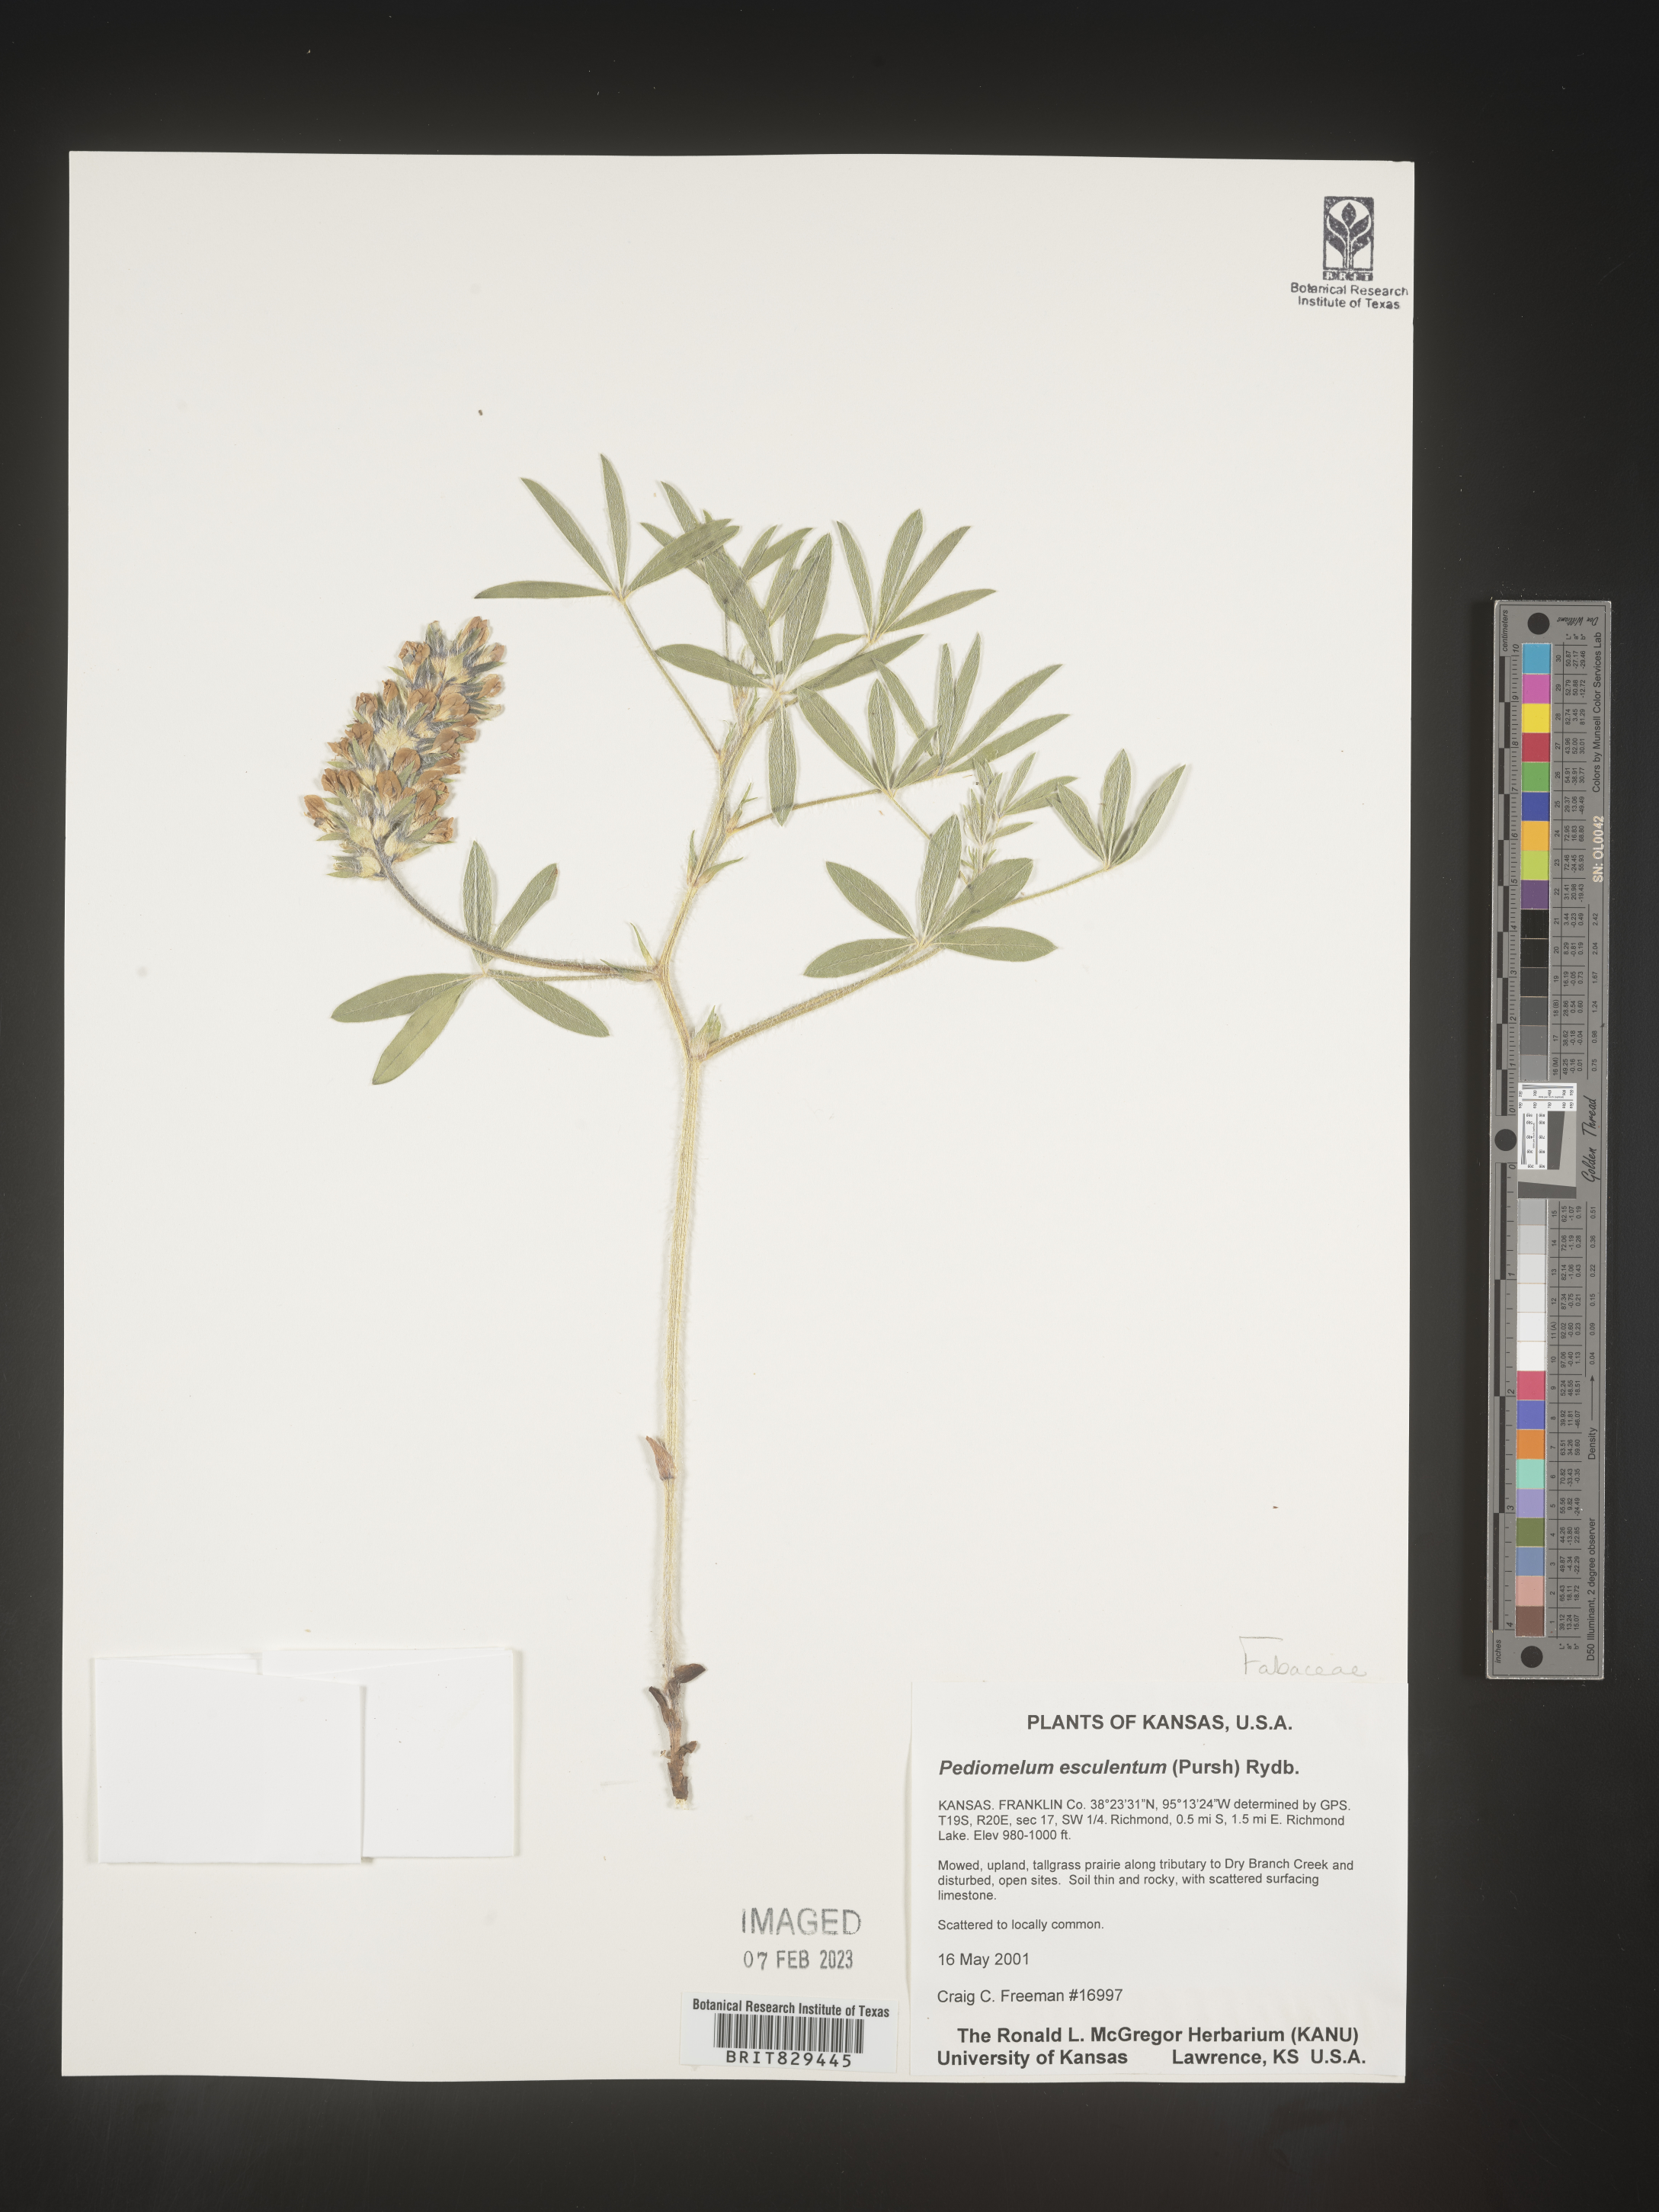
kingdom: Plantae
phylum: Tracheophyta
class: Magnoliopsida
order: Fabales
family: Fabaceae
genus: Psoralea
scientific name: Psoralea
